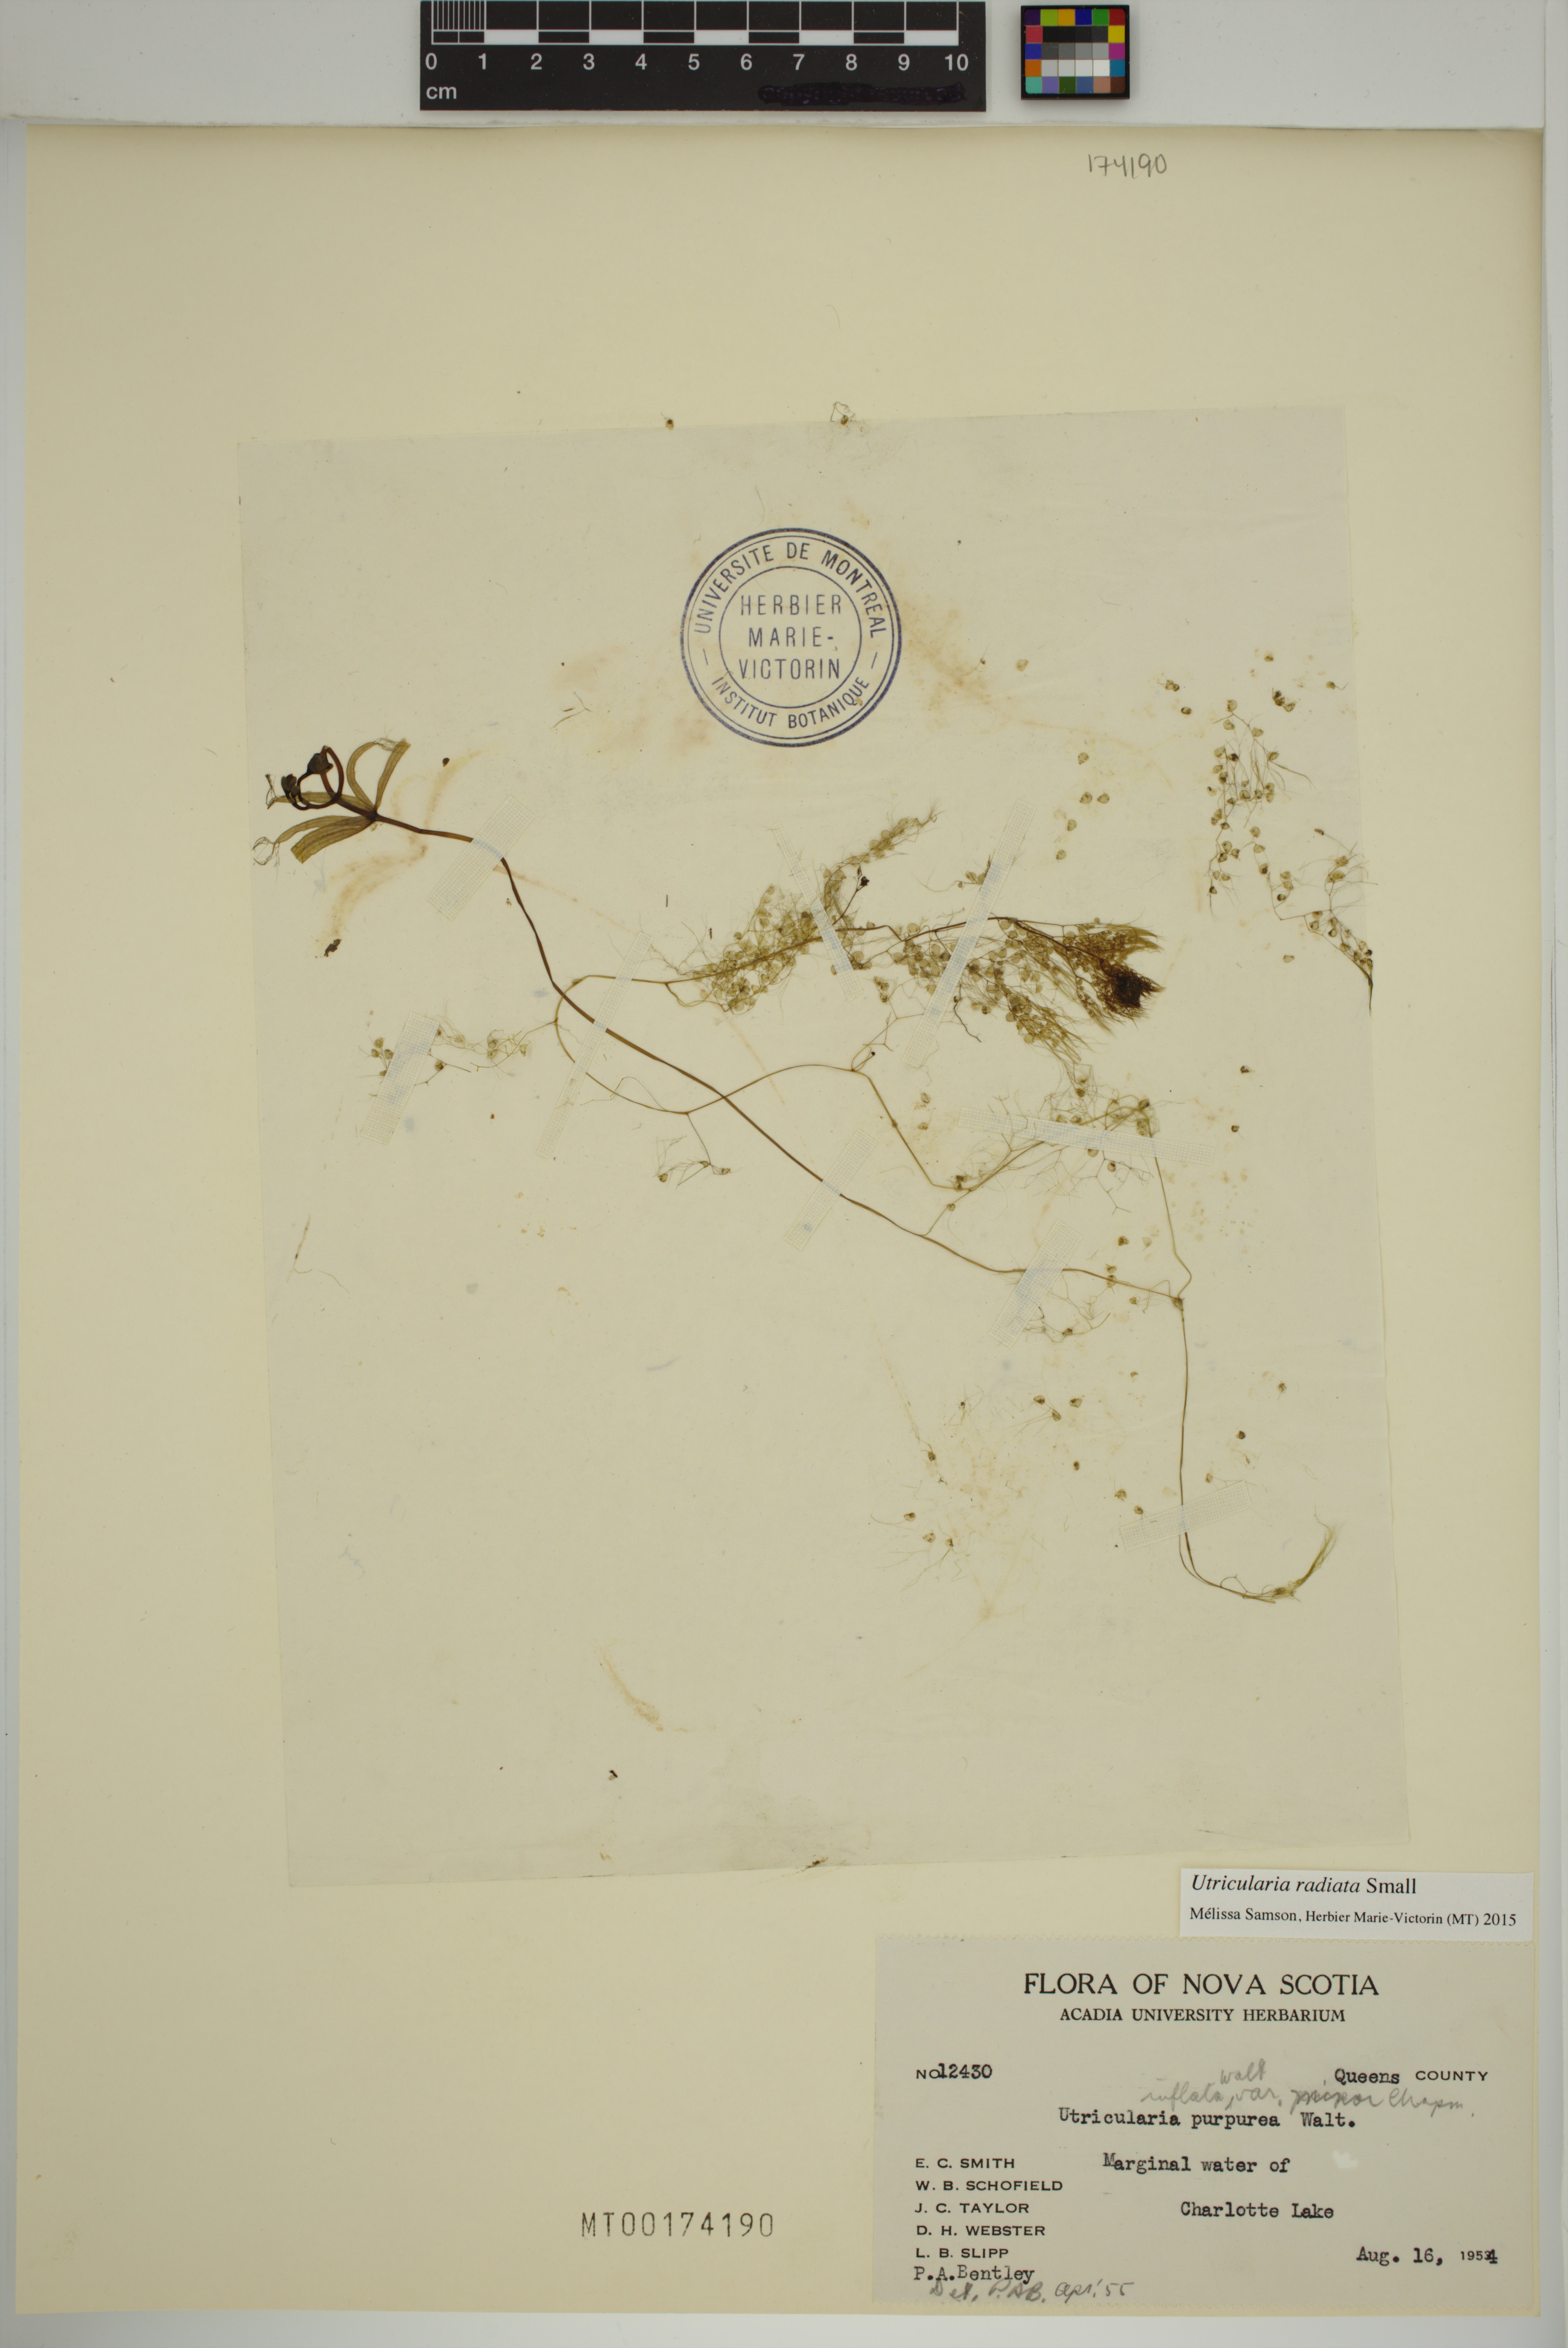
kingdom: Plantae
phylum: Tracheophyta
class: Magnoliopsida
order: Lamiales
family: Lentibulariaceae
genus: Utricularia
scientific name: Utricularia radiata
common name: Floating bladderwort
